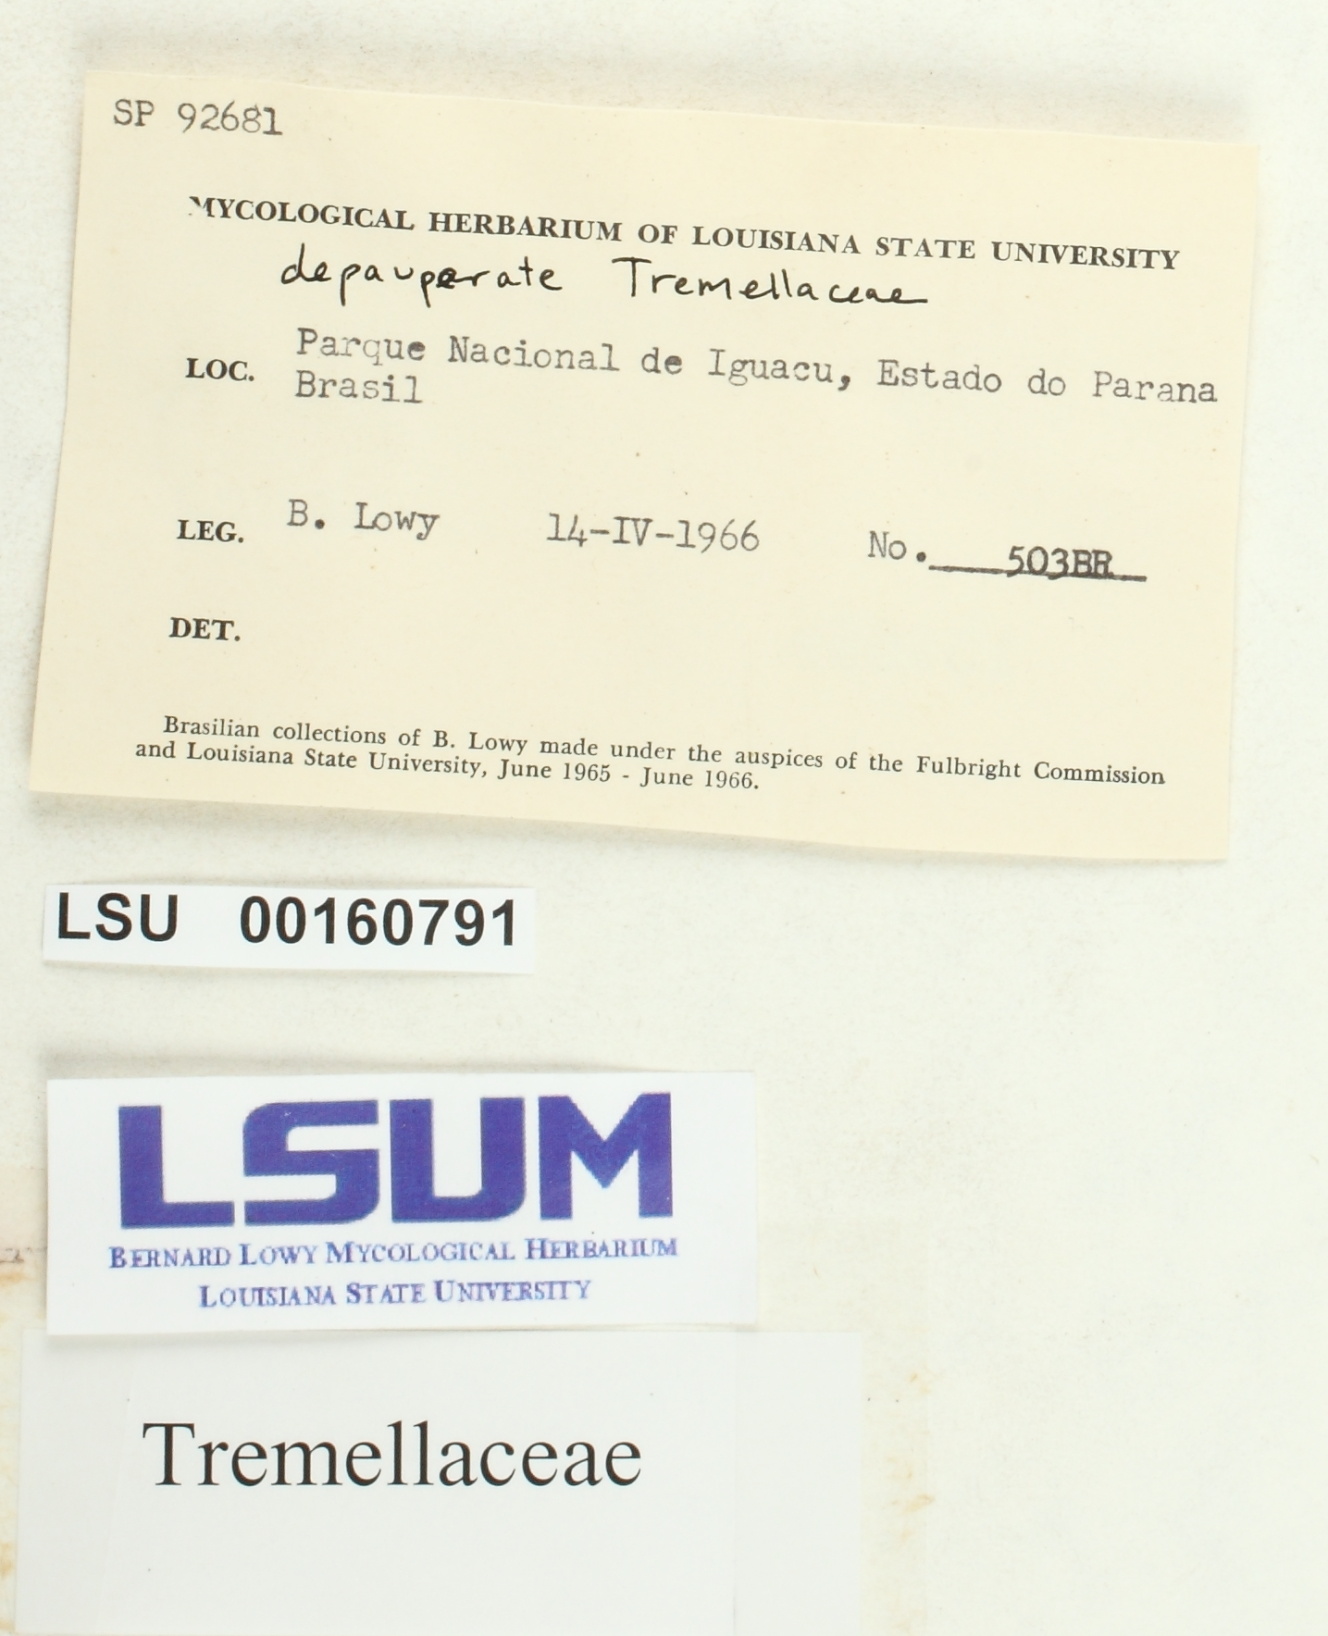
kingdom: Fungi
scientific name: Fungi
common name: Fungi
